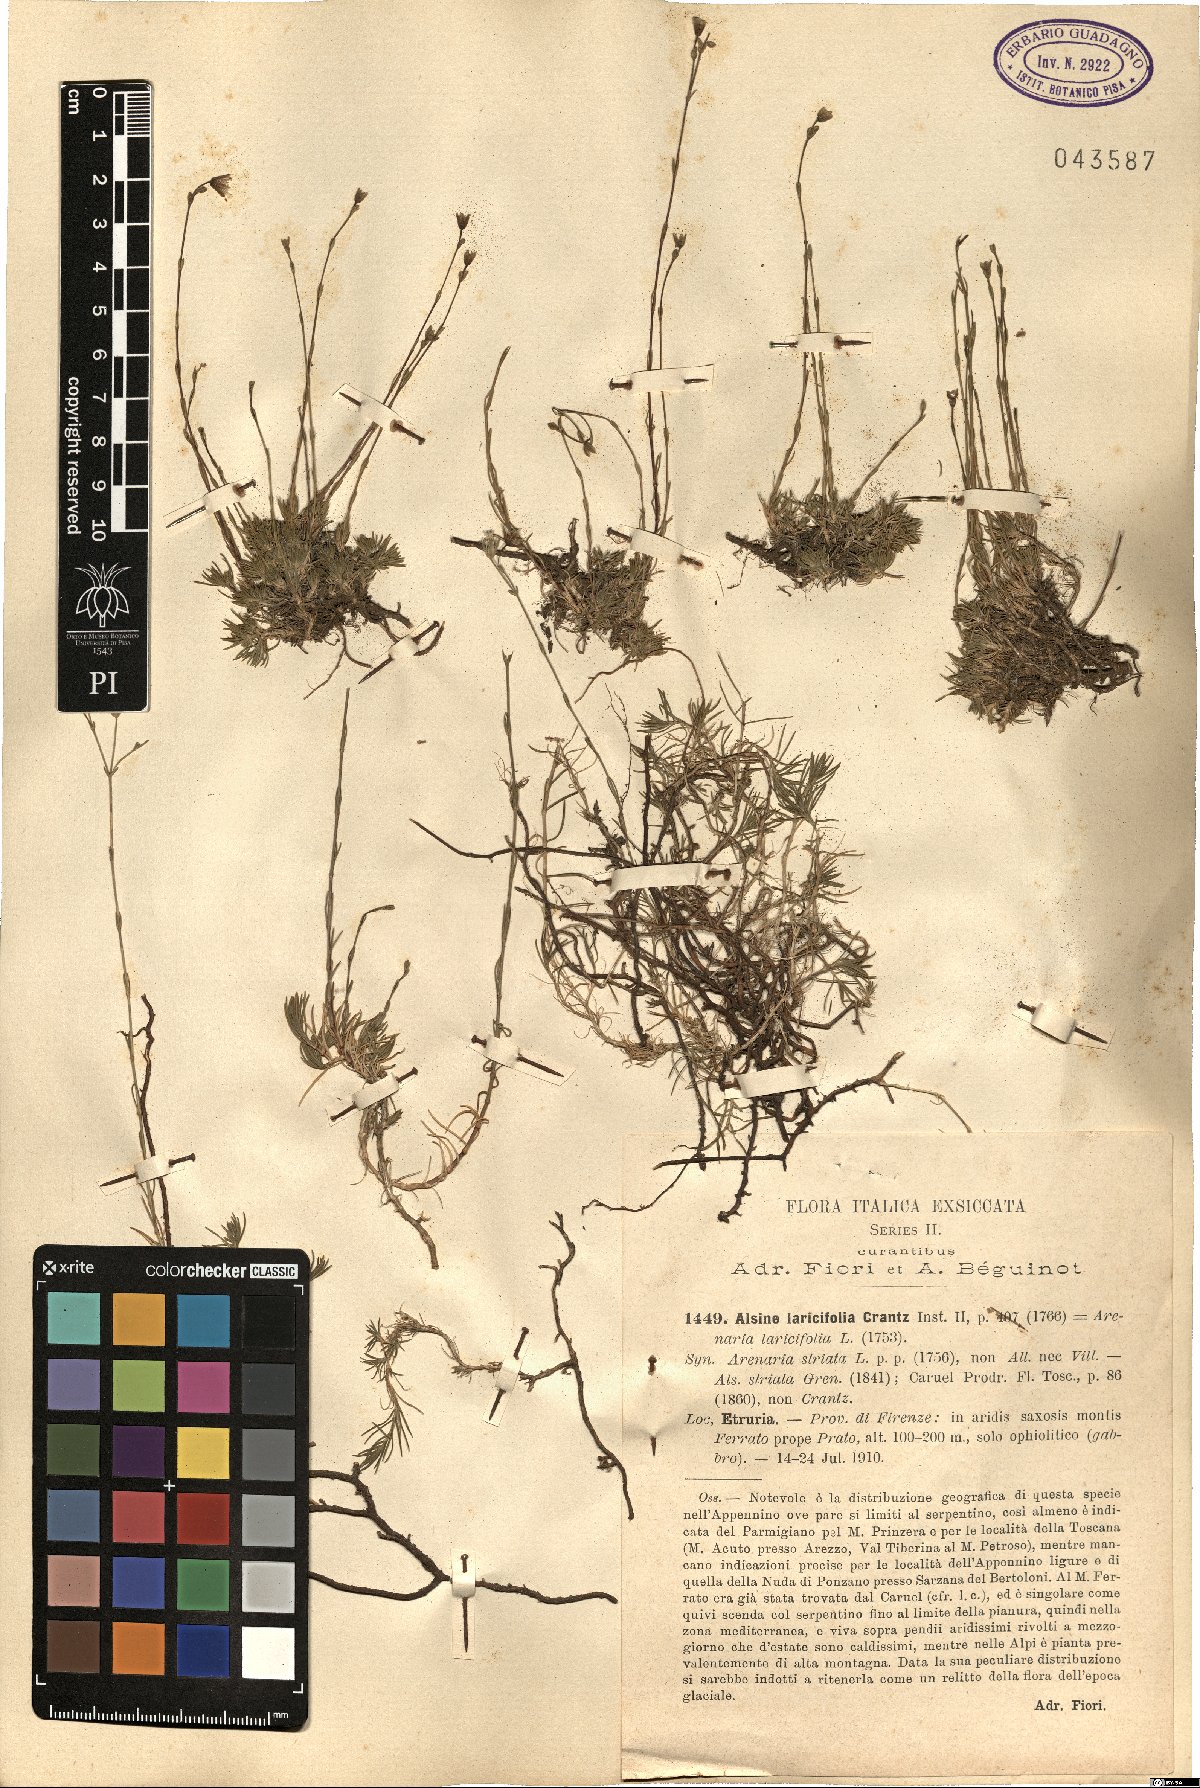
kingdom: Plantae
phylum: Tracheophyta
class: Magnoliopsida
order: Caryophyllales
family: Caryophyllaceae
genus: Cherleria
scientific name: Cherleria laricifolia
